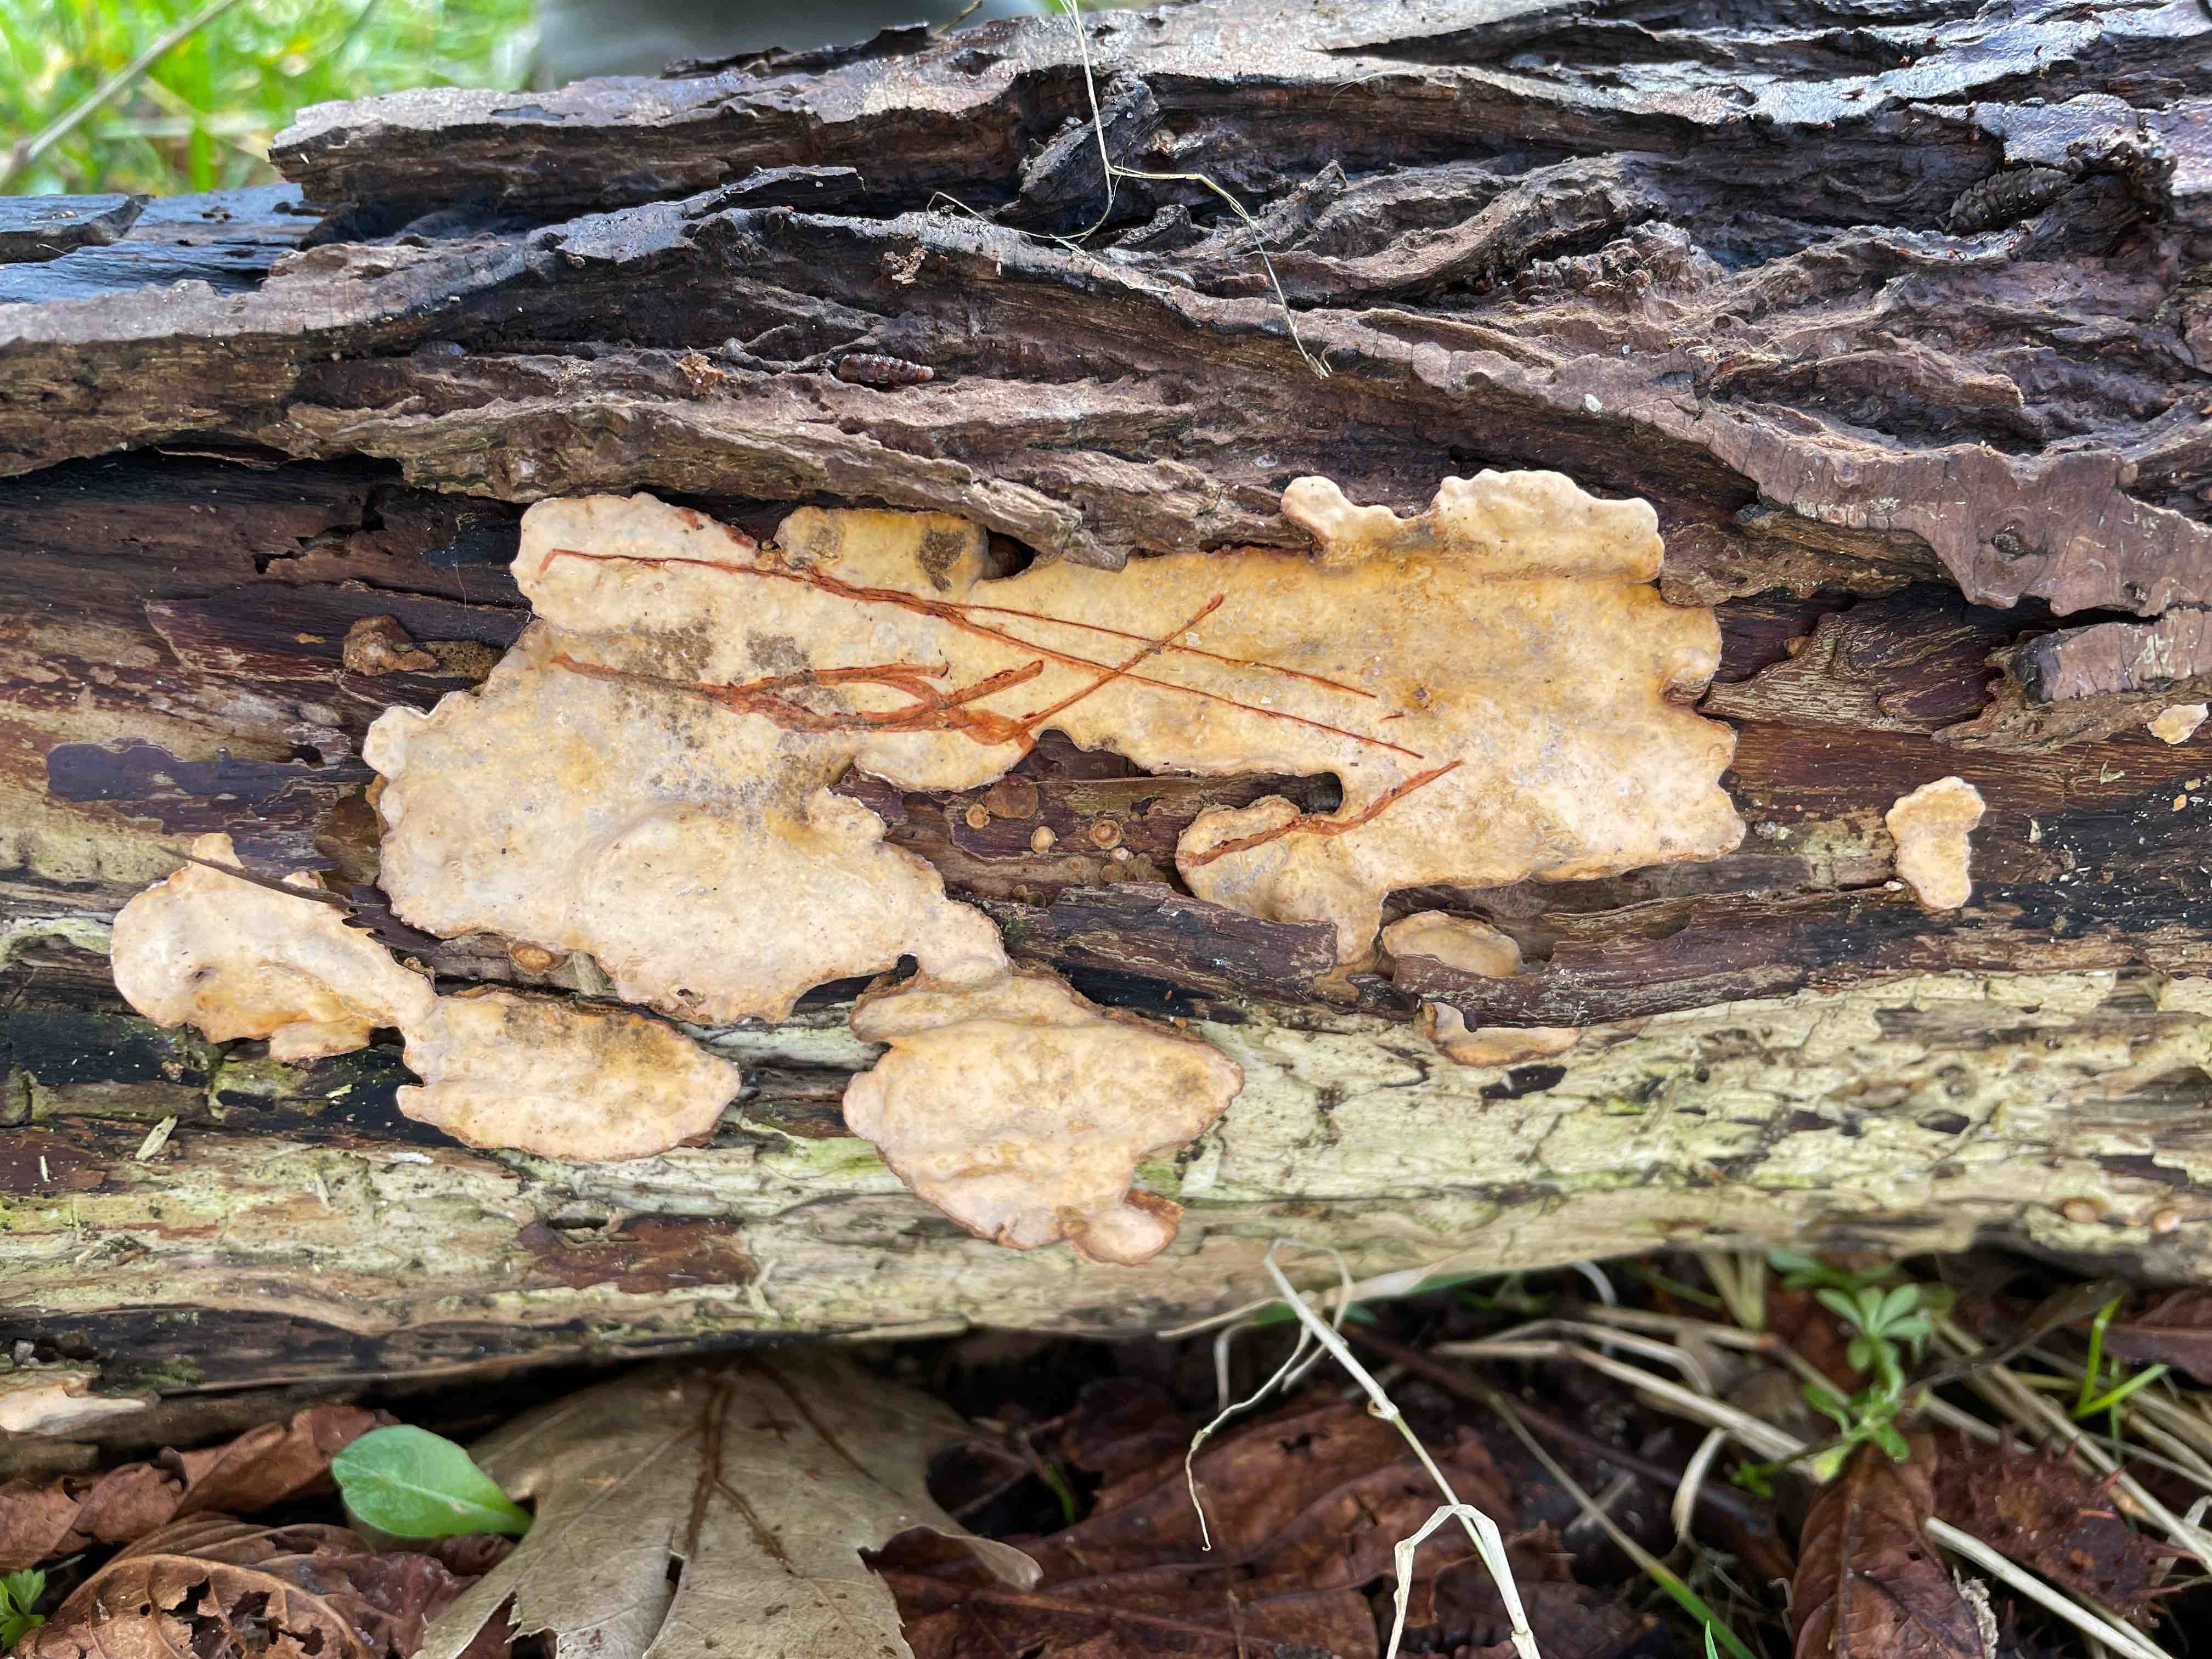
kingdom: Fungi
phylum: Basidiomycota
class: Agaricomycetes
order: Russulales
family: Stereaceae
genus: Stereum
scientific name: Stereum rugosum
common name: rynket lædersvamp
